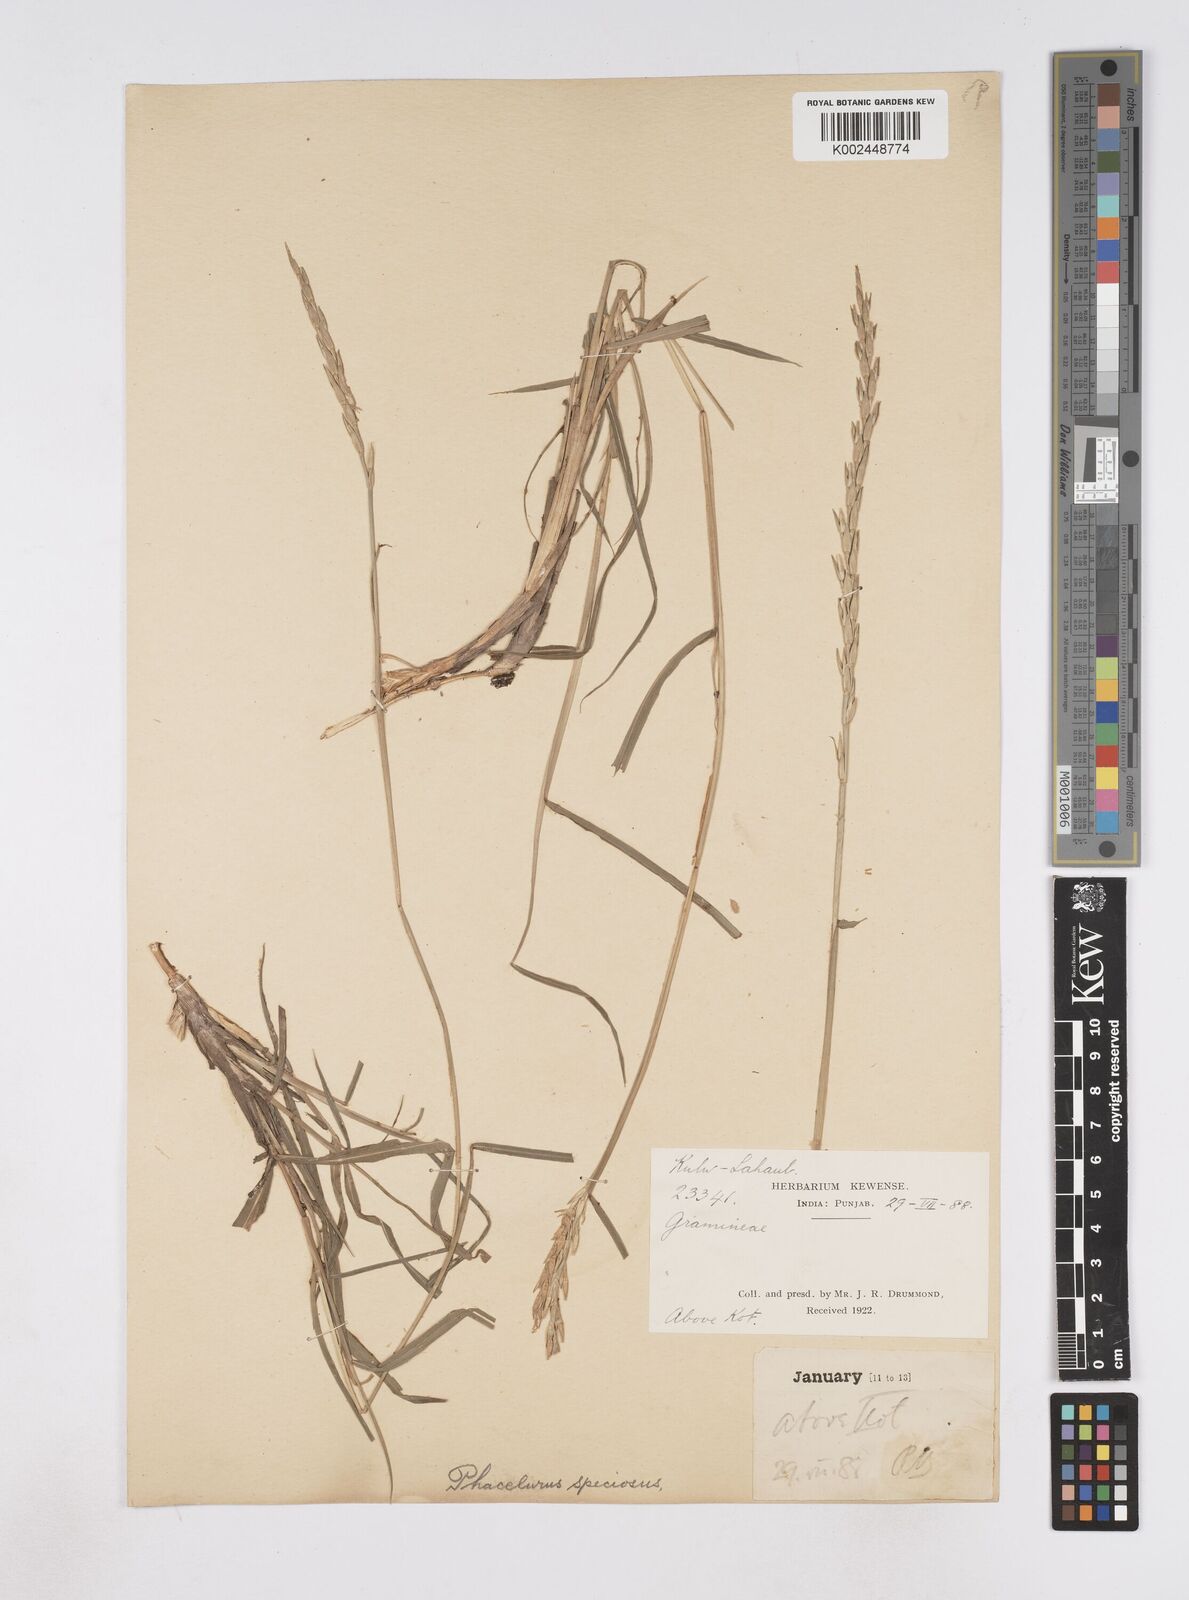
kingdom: Plantae
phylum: Tracheophyta
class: Liliopsida
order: Poales
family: Poaceae
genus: Phacelurus
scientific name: Phacelurus speciosus
